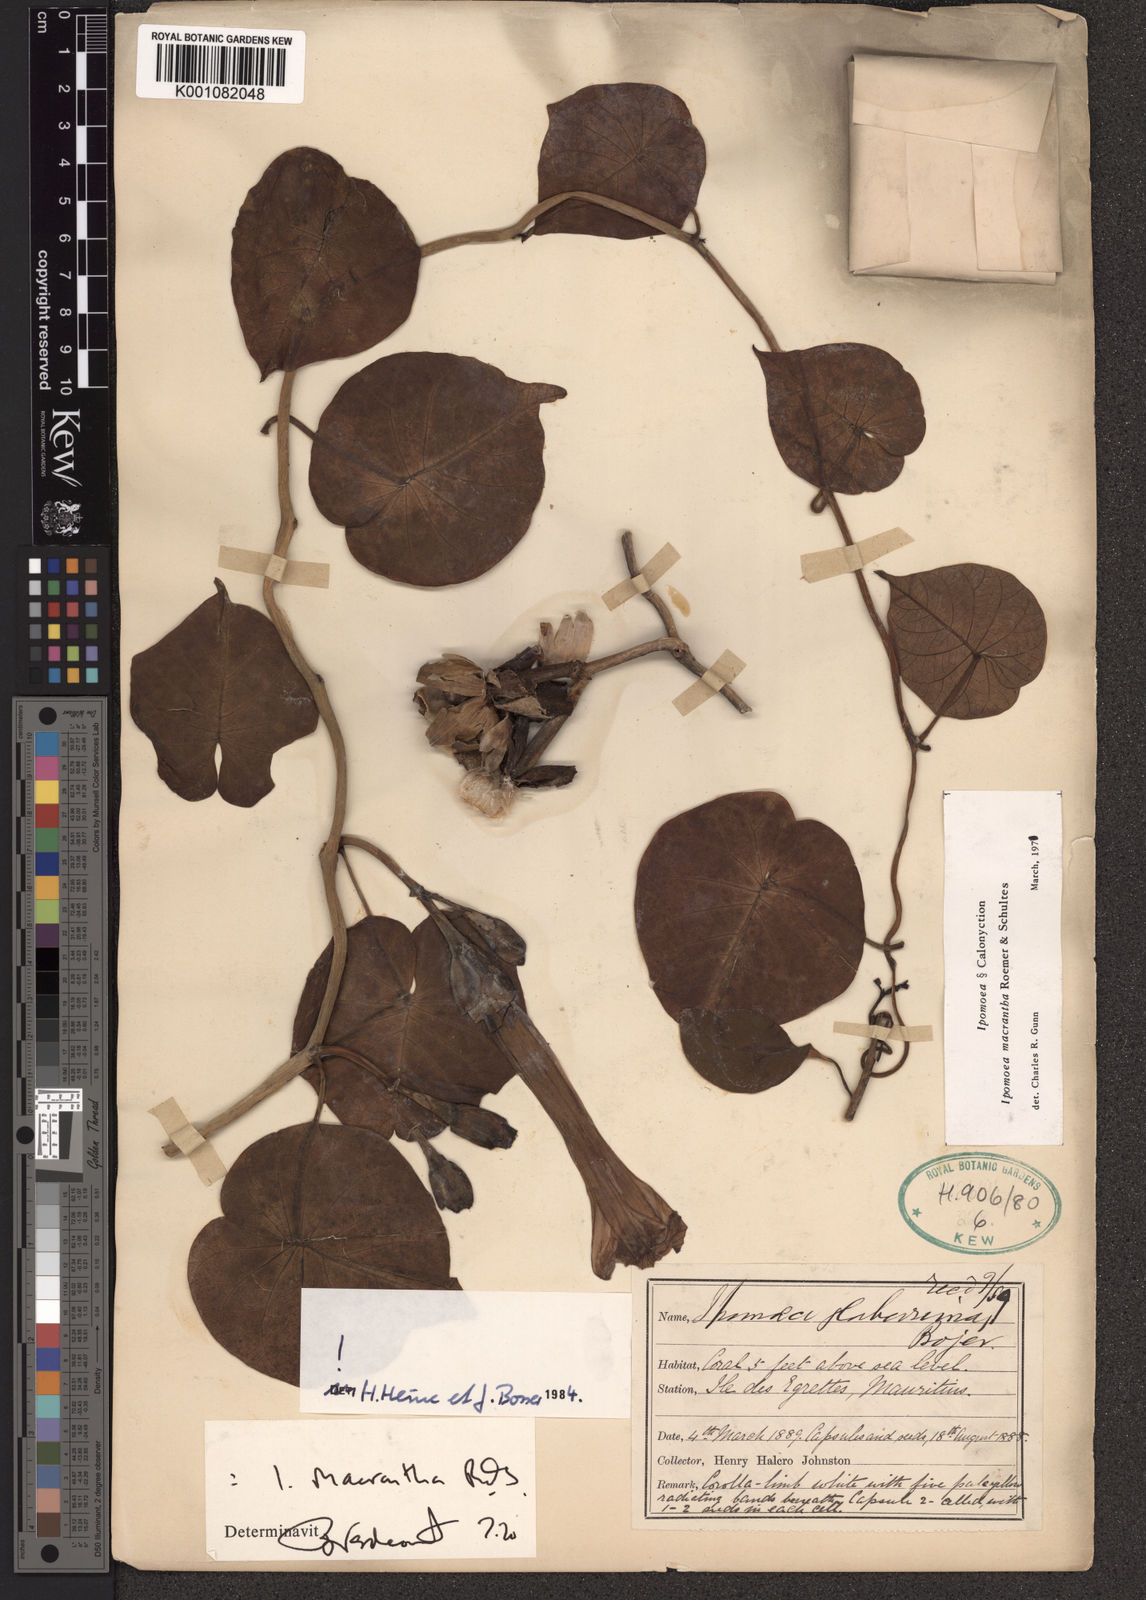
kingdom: Plantae
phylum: Tracheophyta
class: Magnoliopsida
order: Solanales
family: Convolvulaceae
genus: Ipomoea
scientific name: Ipomoea violacea
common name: Beach moonflower
